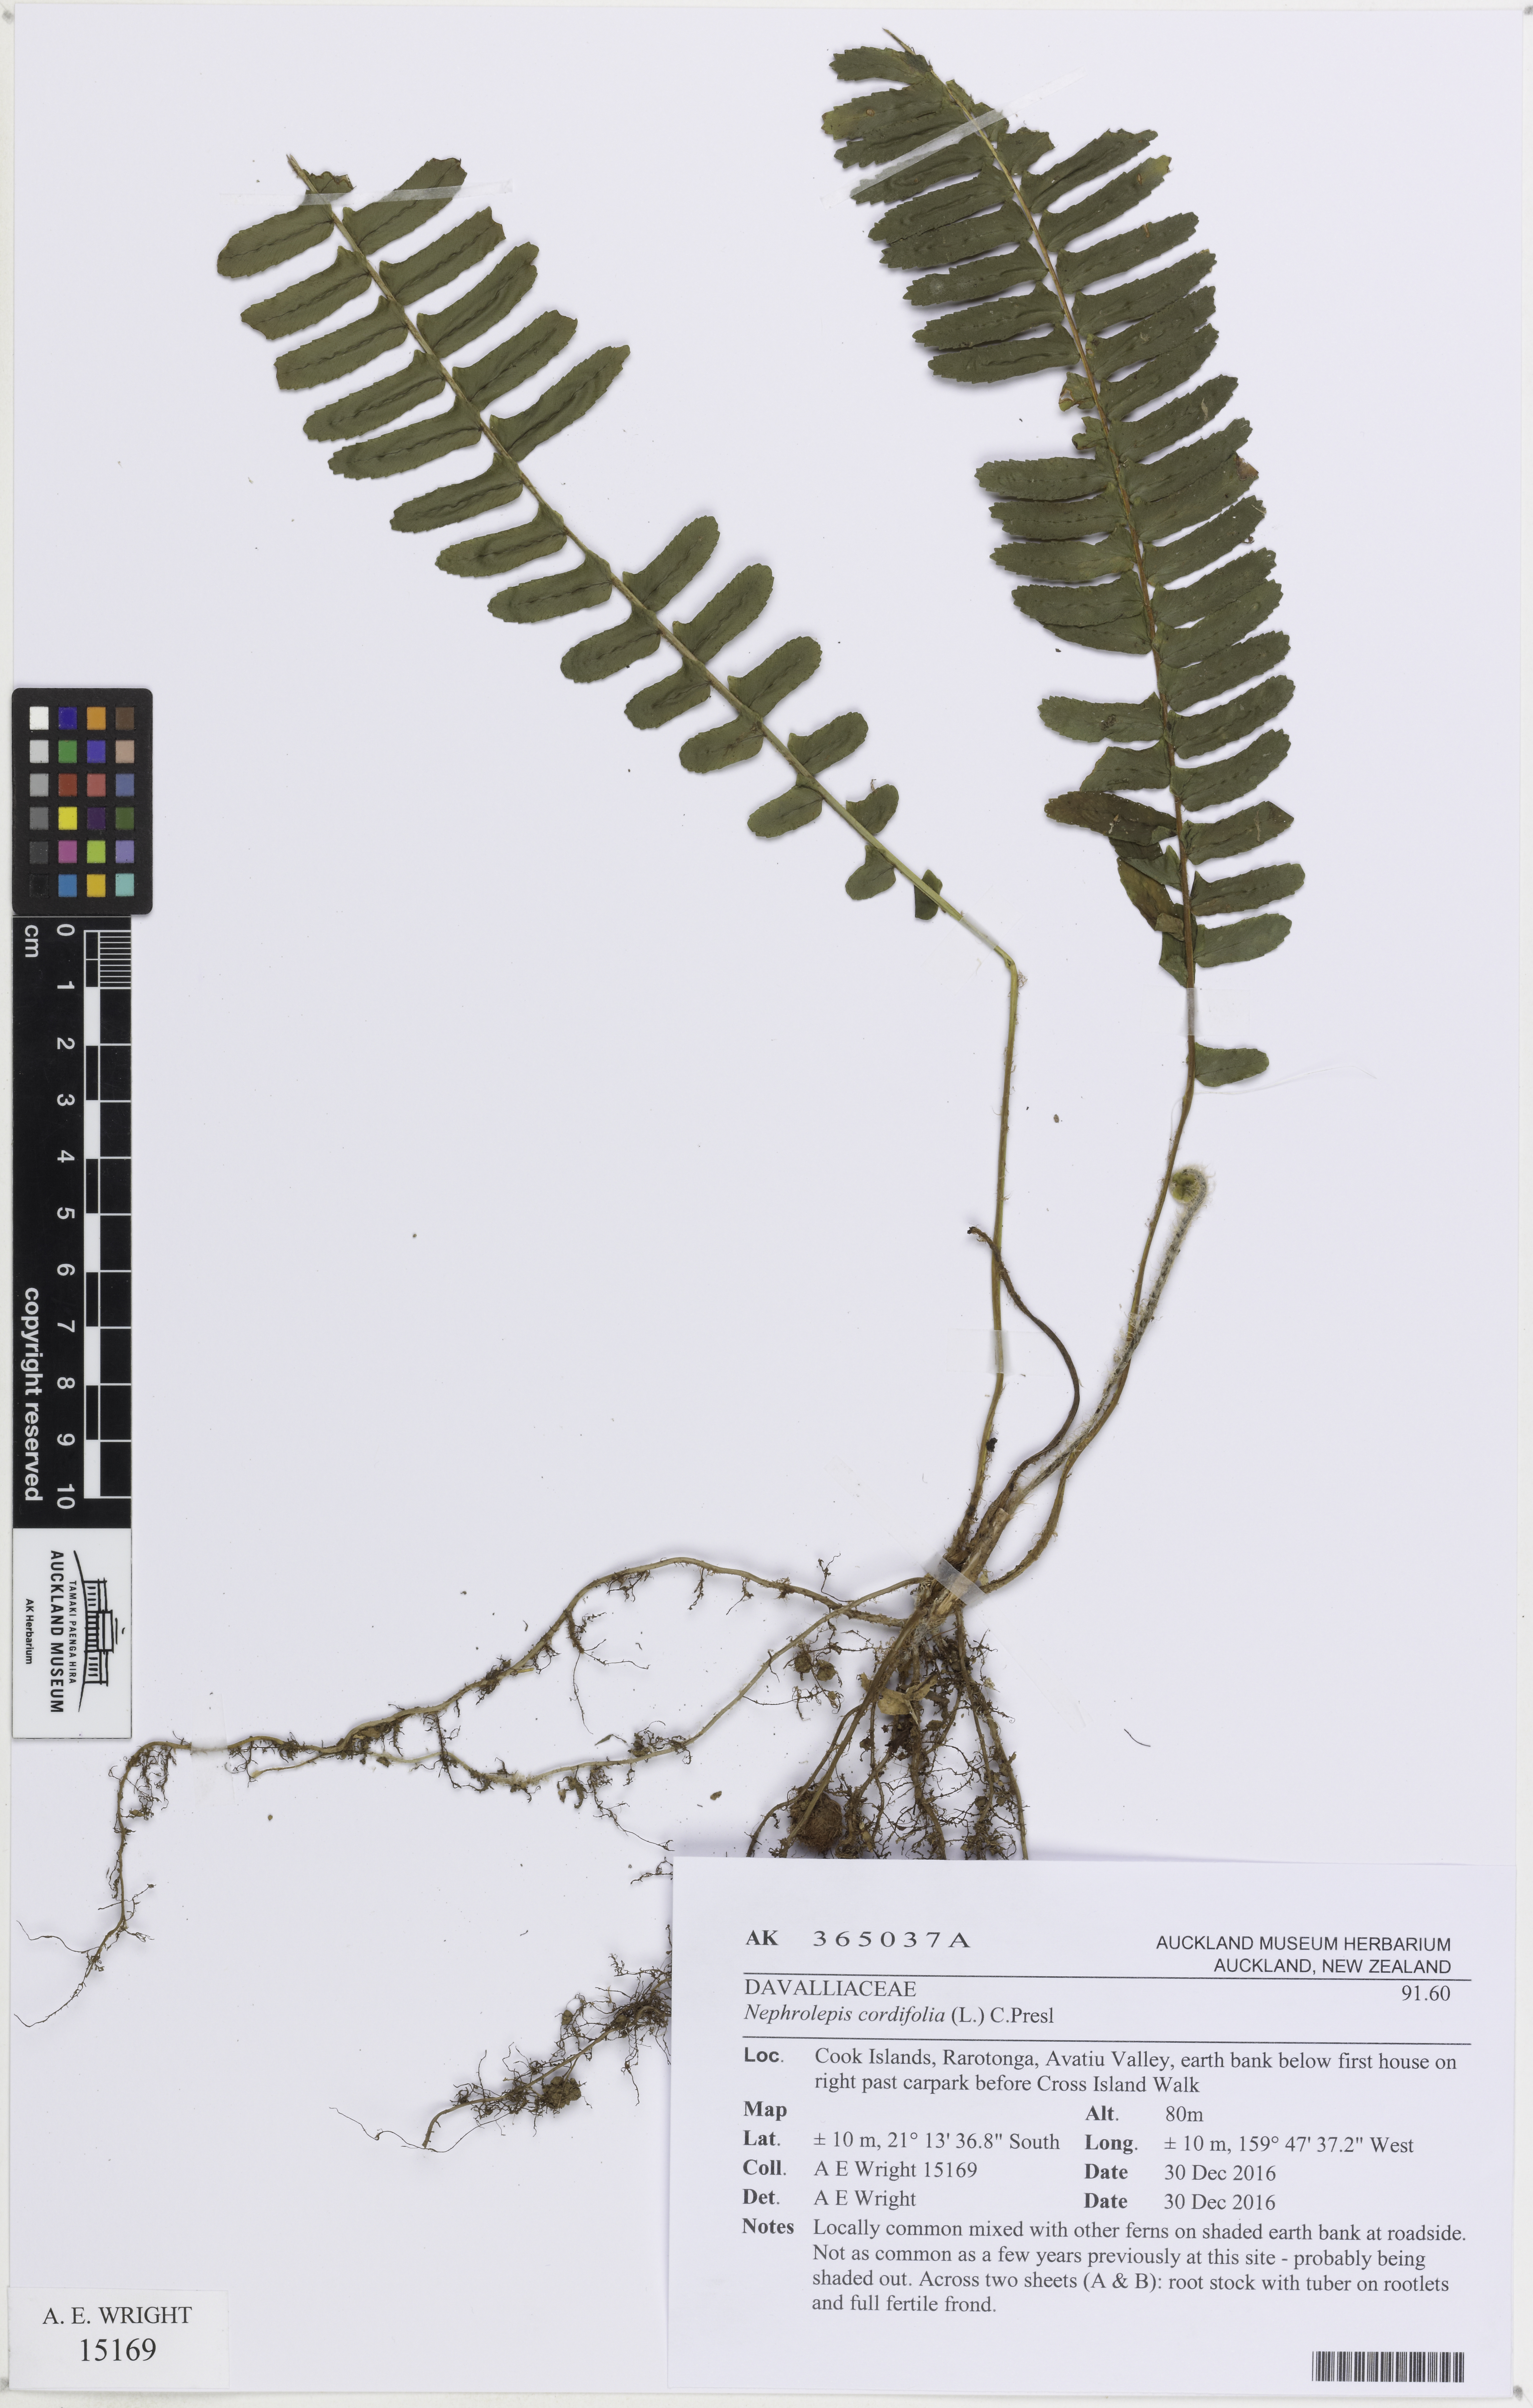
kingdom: Plantae
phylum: Tracheophyta
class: Polypodiopsida
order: Polypodiales
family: Nephrolepidaceae
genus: Nephrolepis
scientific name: Nephrolepis cordifolia
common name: Narrow swordfern
